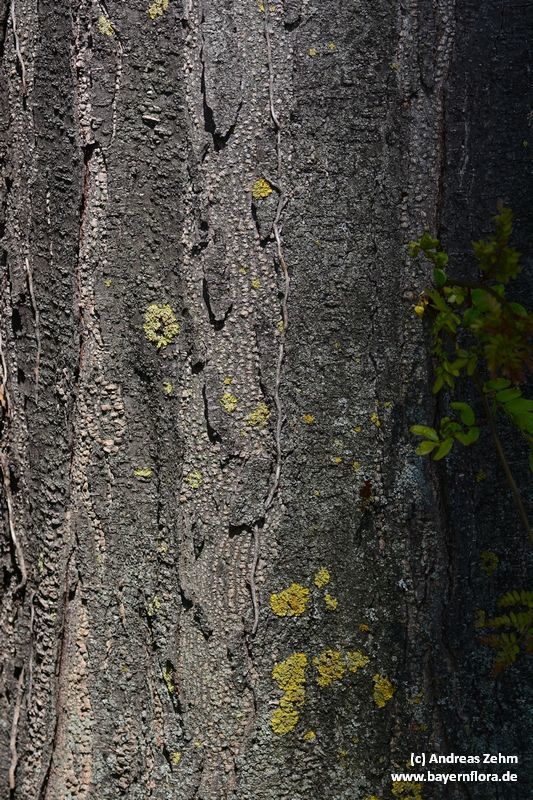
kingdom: Plantae
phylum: Tracheophyta
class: Magnoliopsida
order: Fabales
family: Fabaceae
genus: Gleditsia
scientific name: Gleditsia triacanthos
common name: Common honeylocust
